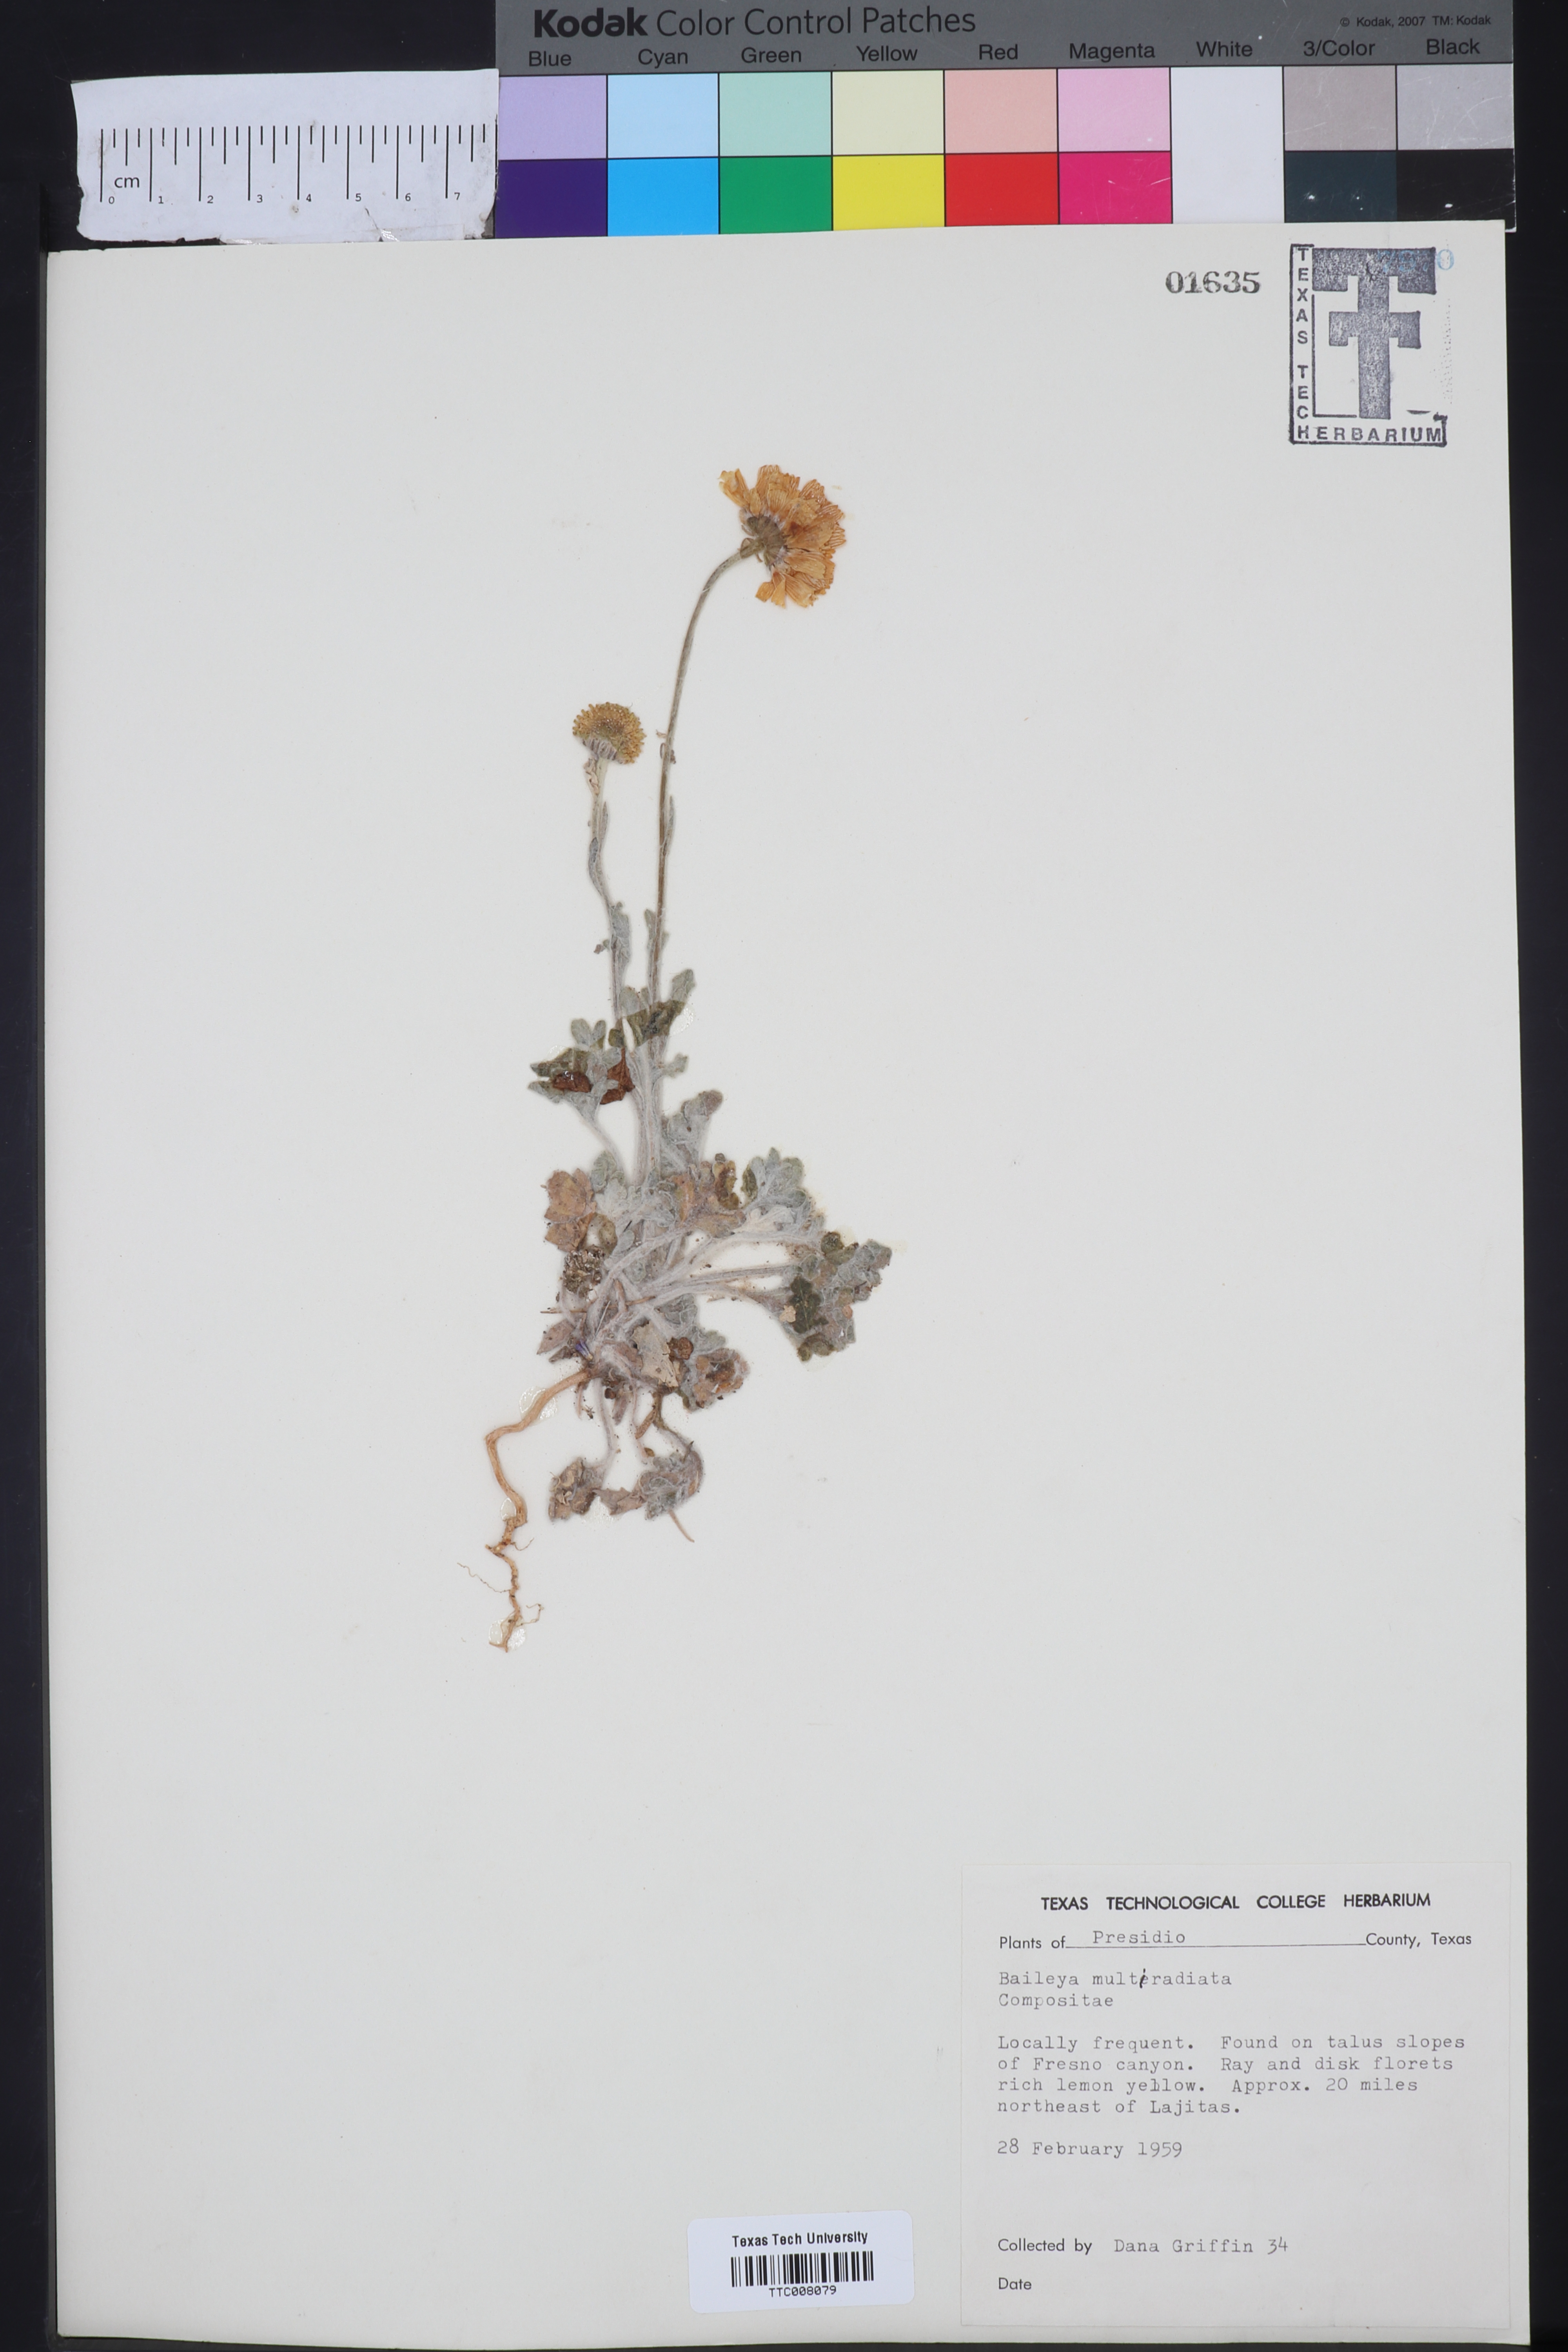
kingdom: Plantae
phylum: Tracheophyta
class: Magnoliopsida
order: Asterales
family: Asteraceae
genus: Baileya
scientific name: Baileya multiradiata
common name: Desert-marigold
